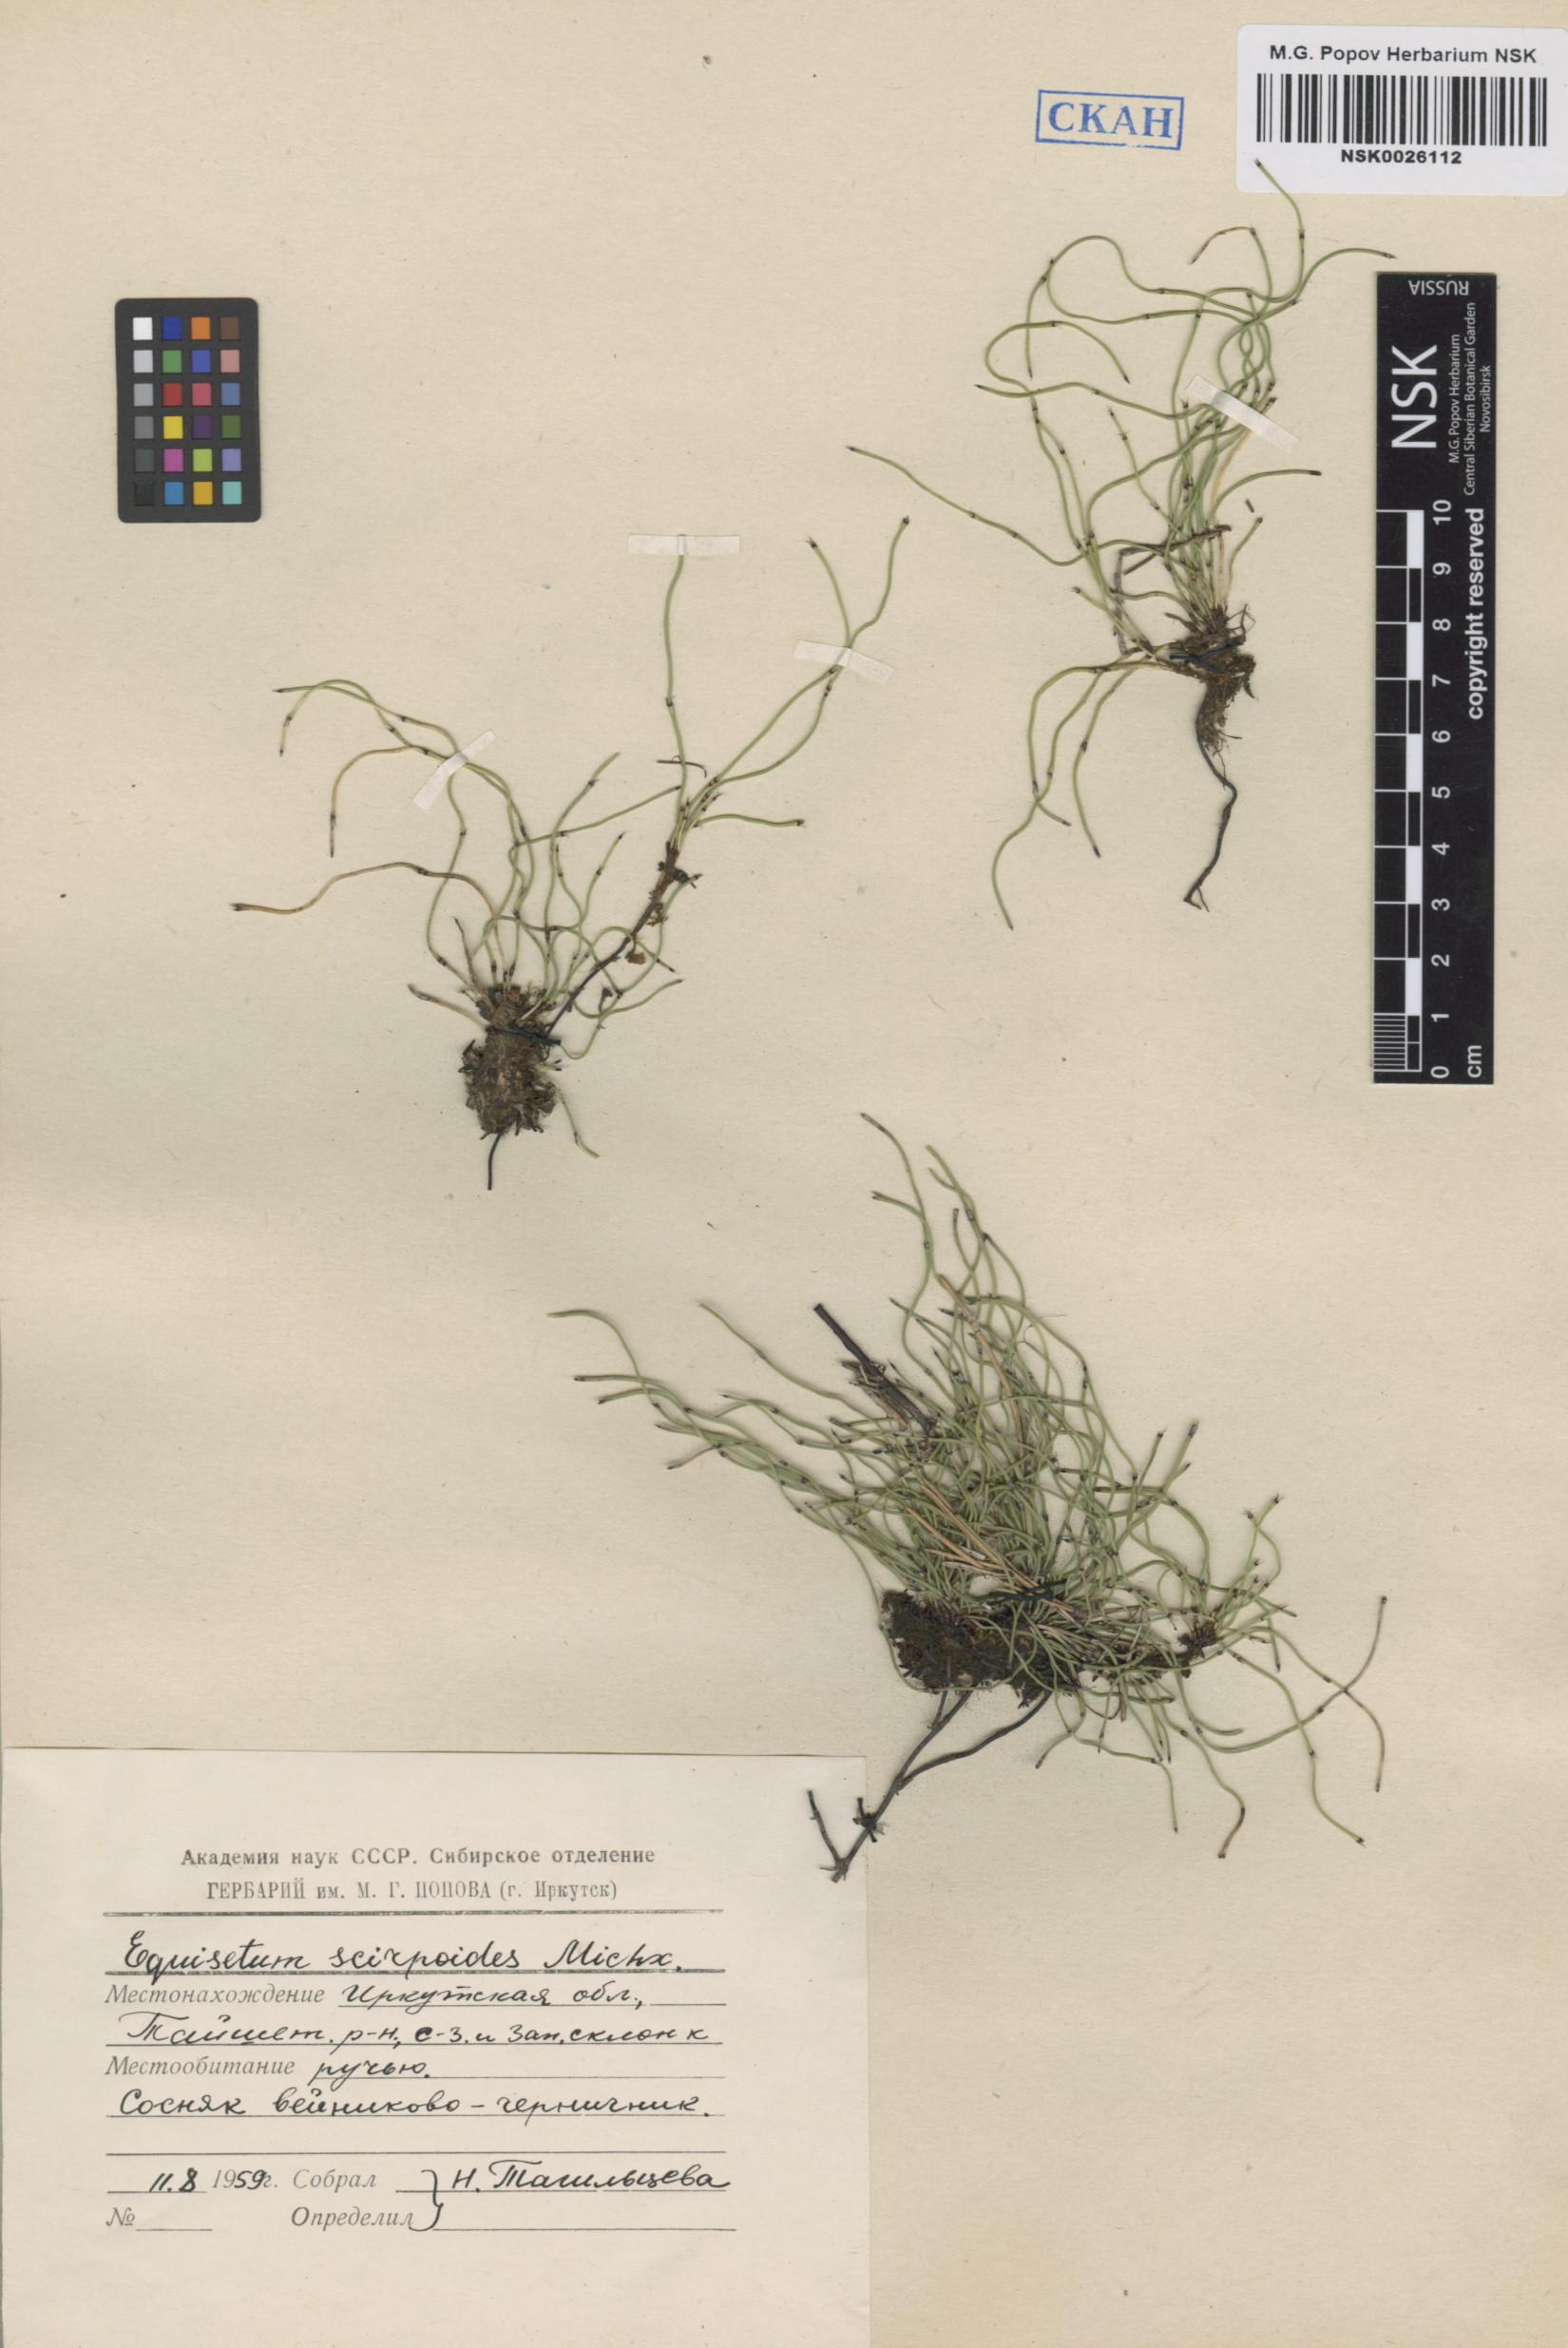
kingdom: Plantae
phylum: Tracheophyta
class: Polypodiopsida
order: Equisetales
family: Equisetaceae
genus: Equisetum
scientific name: Equisetum scirpoides
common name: Delicate horsetail
